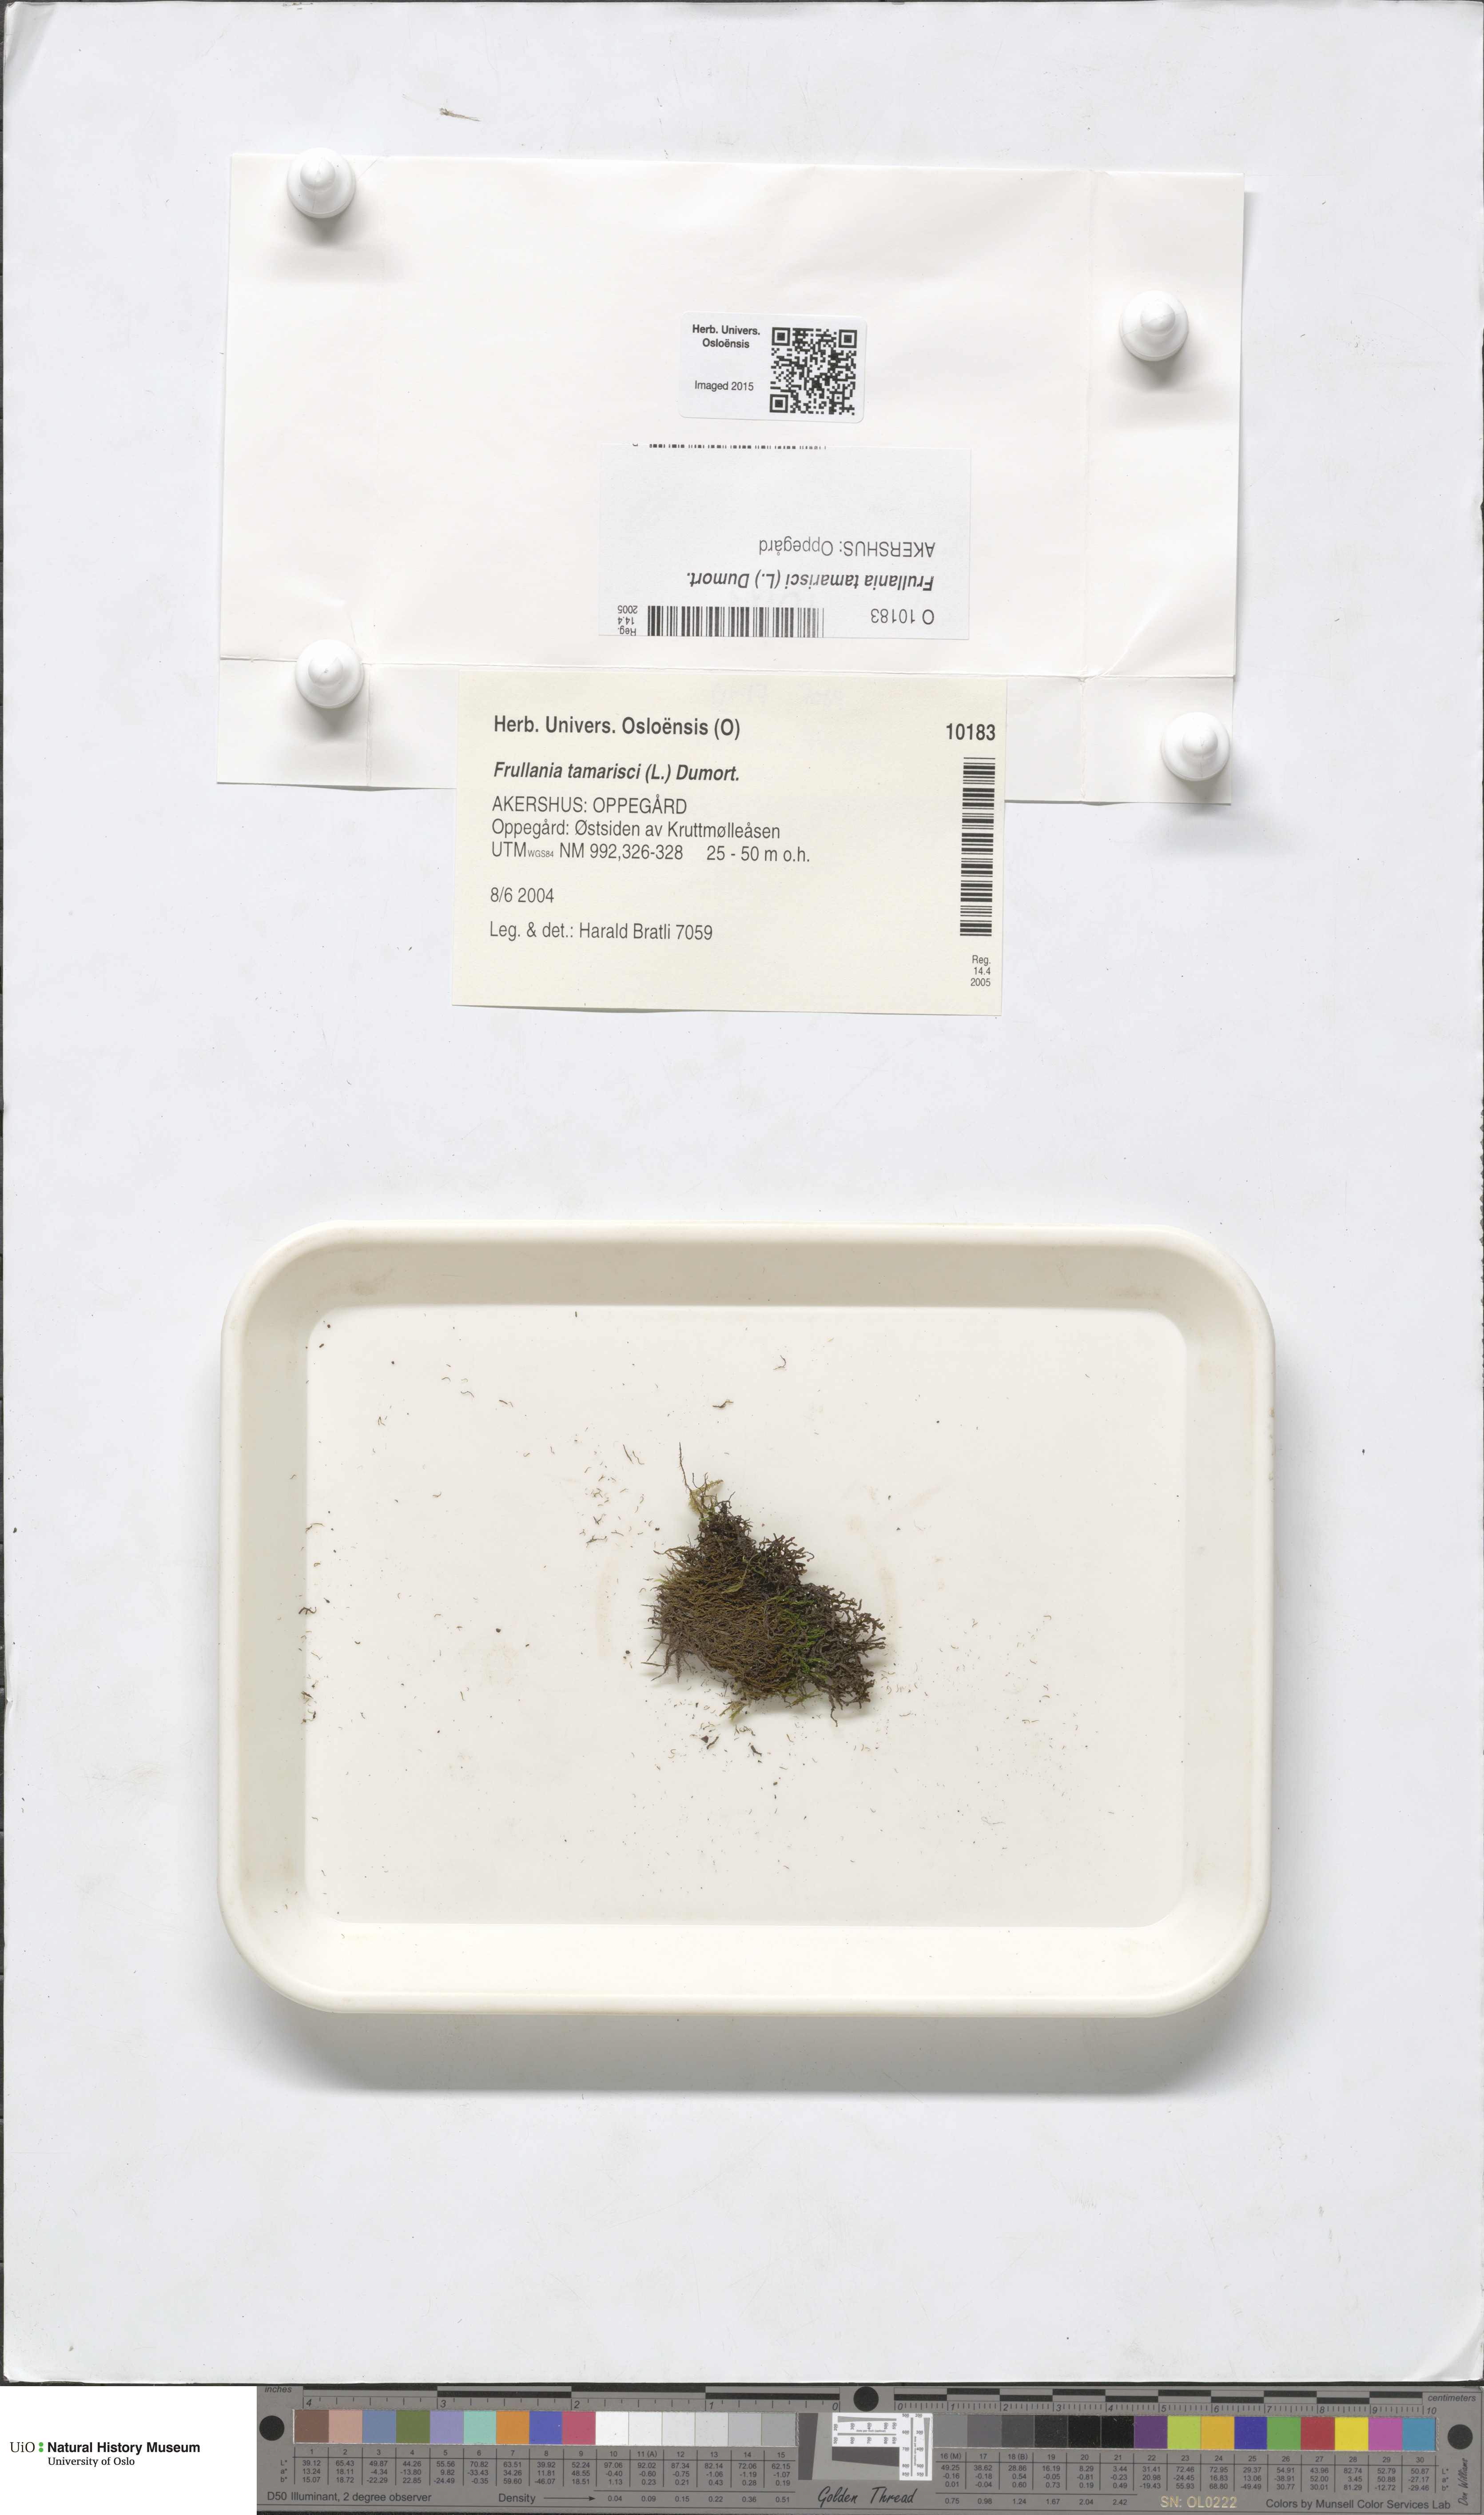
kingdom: Plantae
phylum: Marchantiophyta
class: Jungermanniopsida
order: Porellales
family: Frullaniaceae
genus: Frullania
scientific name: Frullania tamarisci
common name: Tamarisk scalewort
